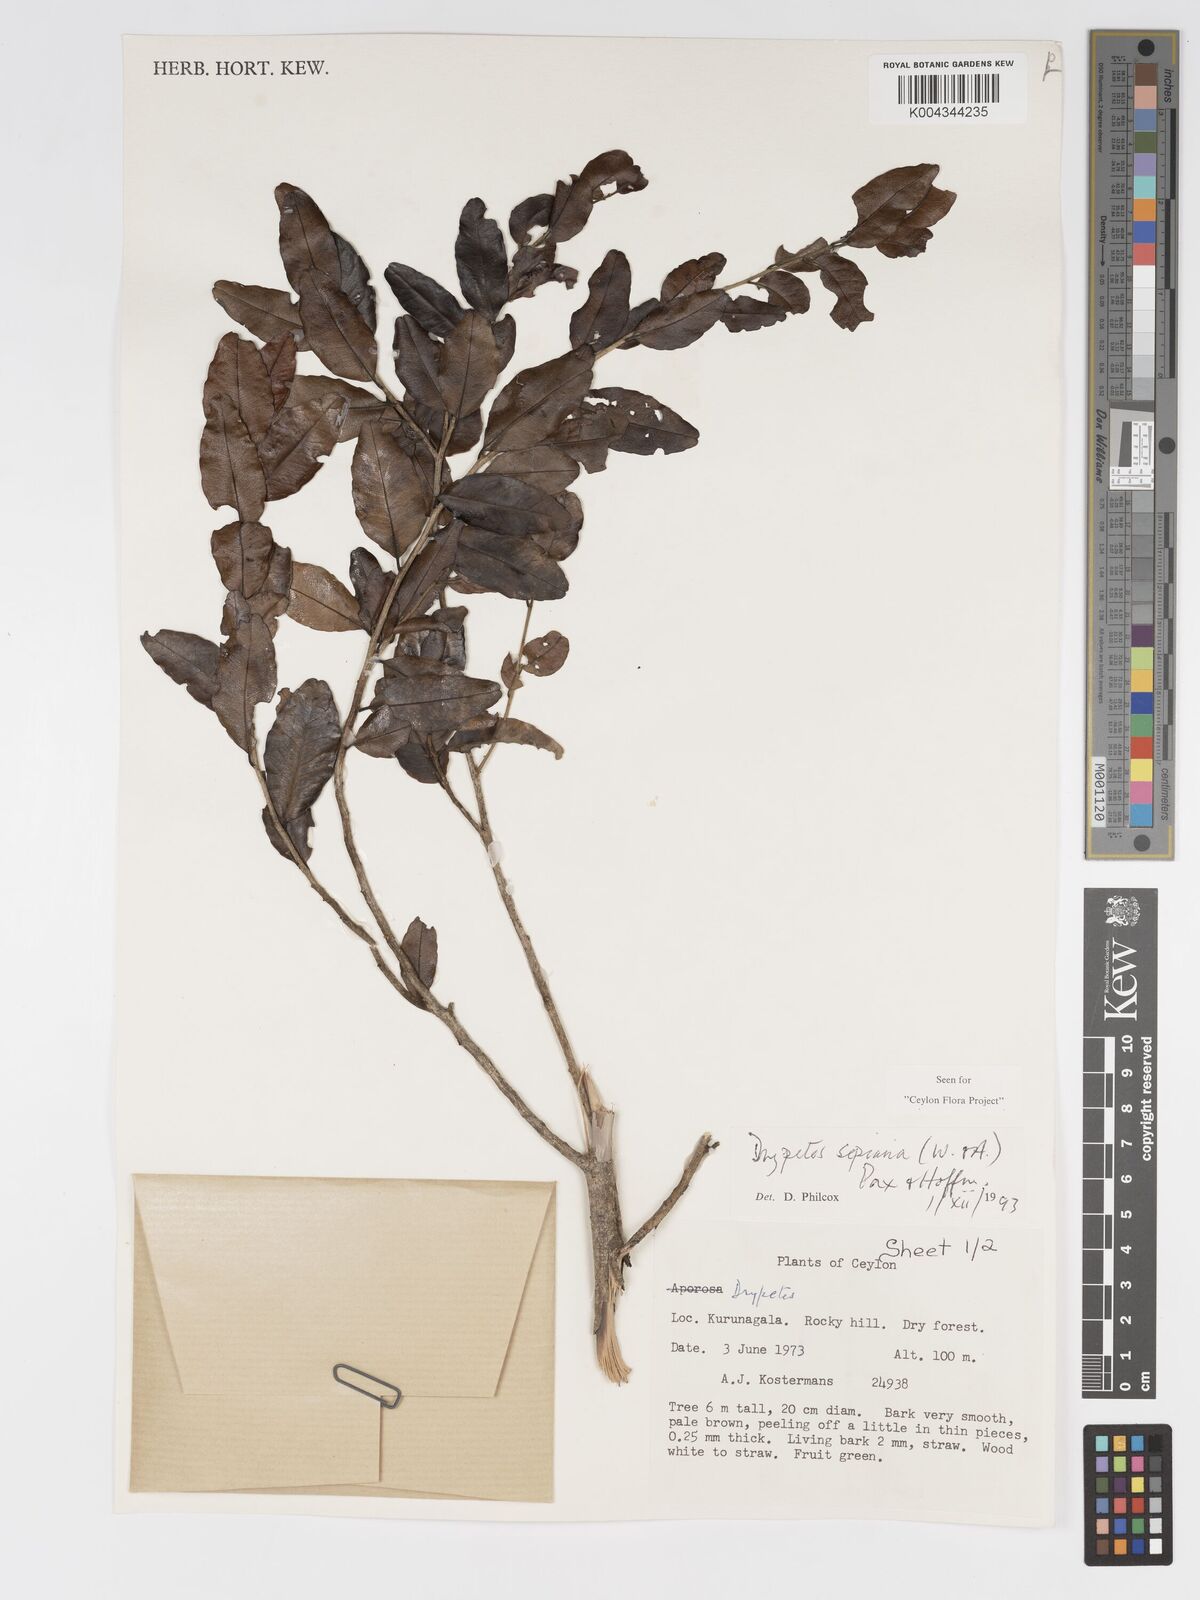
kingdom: Plantae
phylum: Tracheophyta
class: Magnoliopsida
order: Malpighiales
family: Putranjivaceae
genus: Drypetes
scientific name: Drypetes sepiaria
